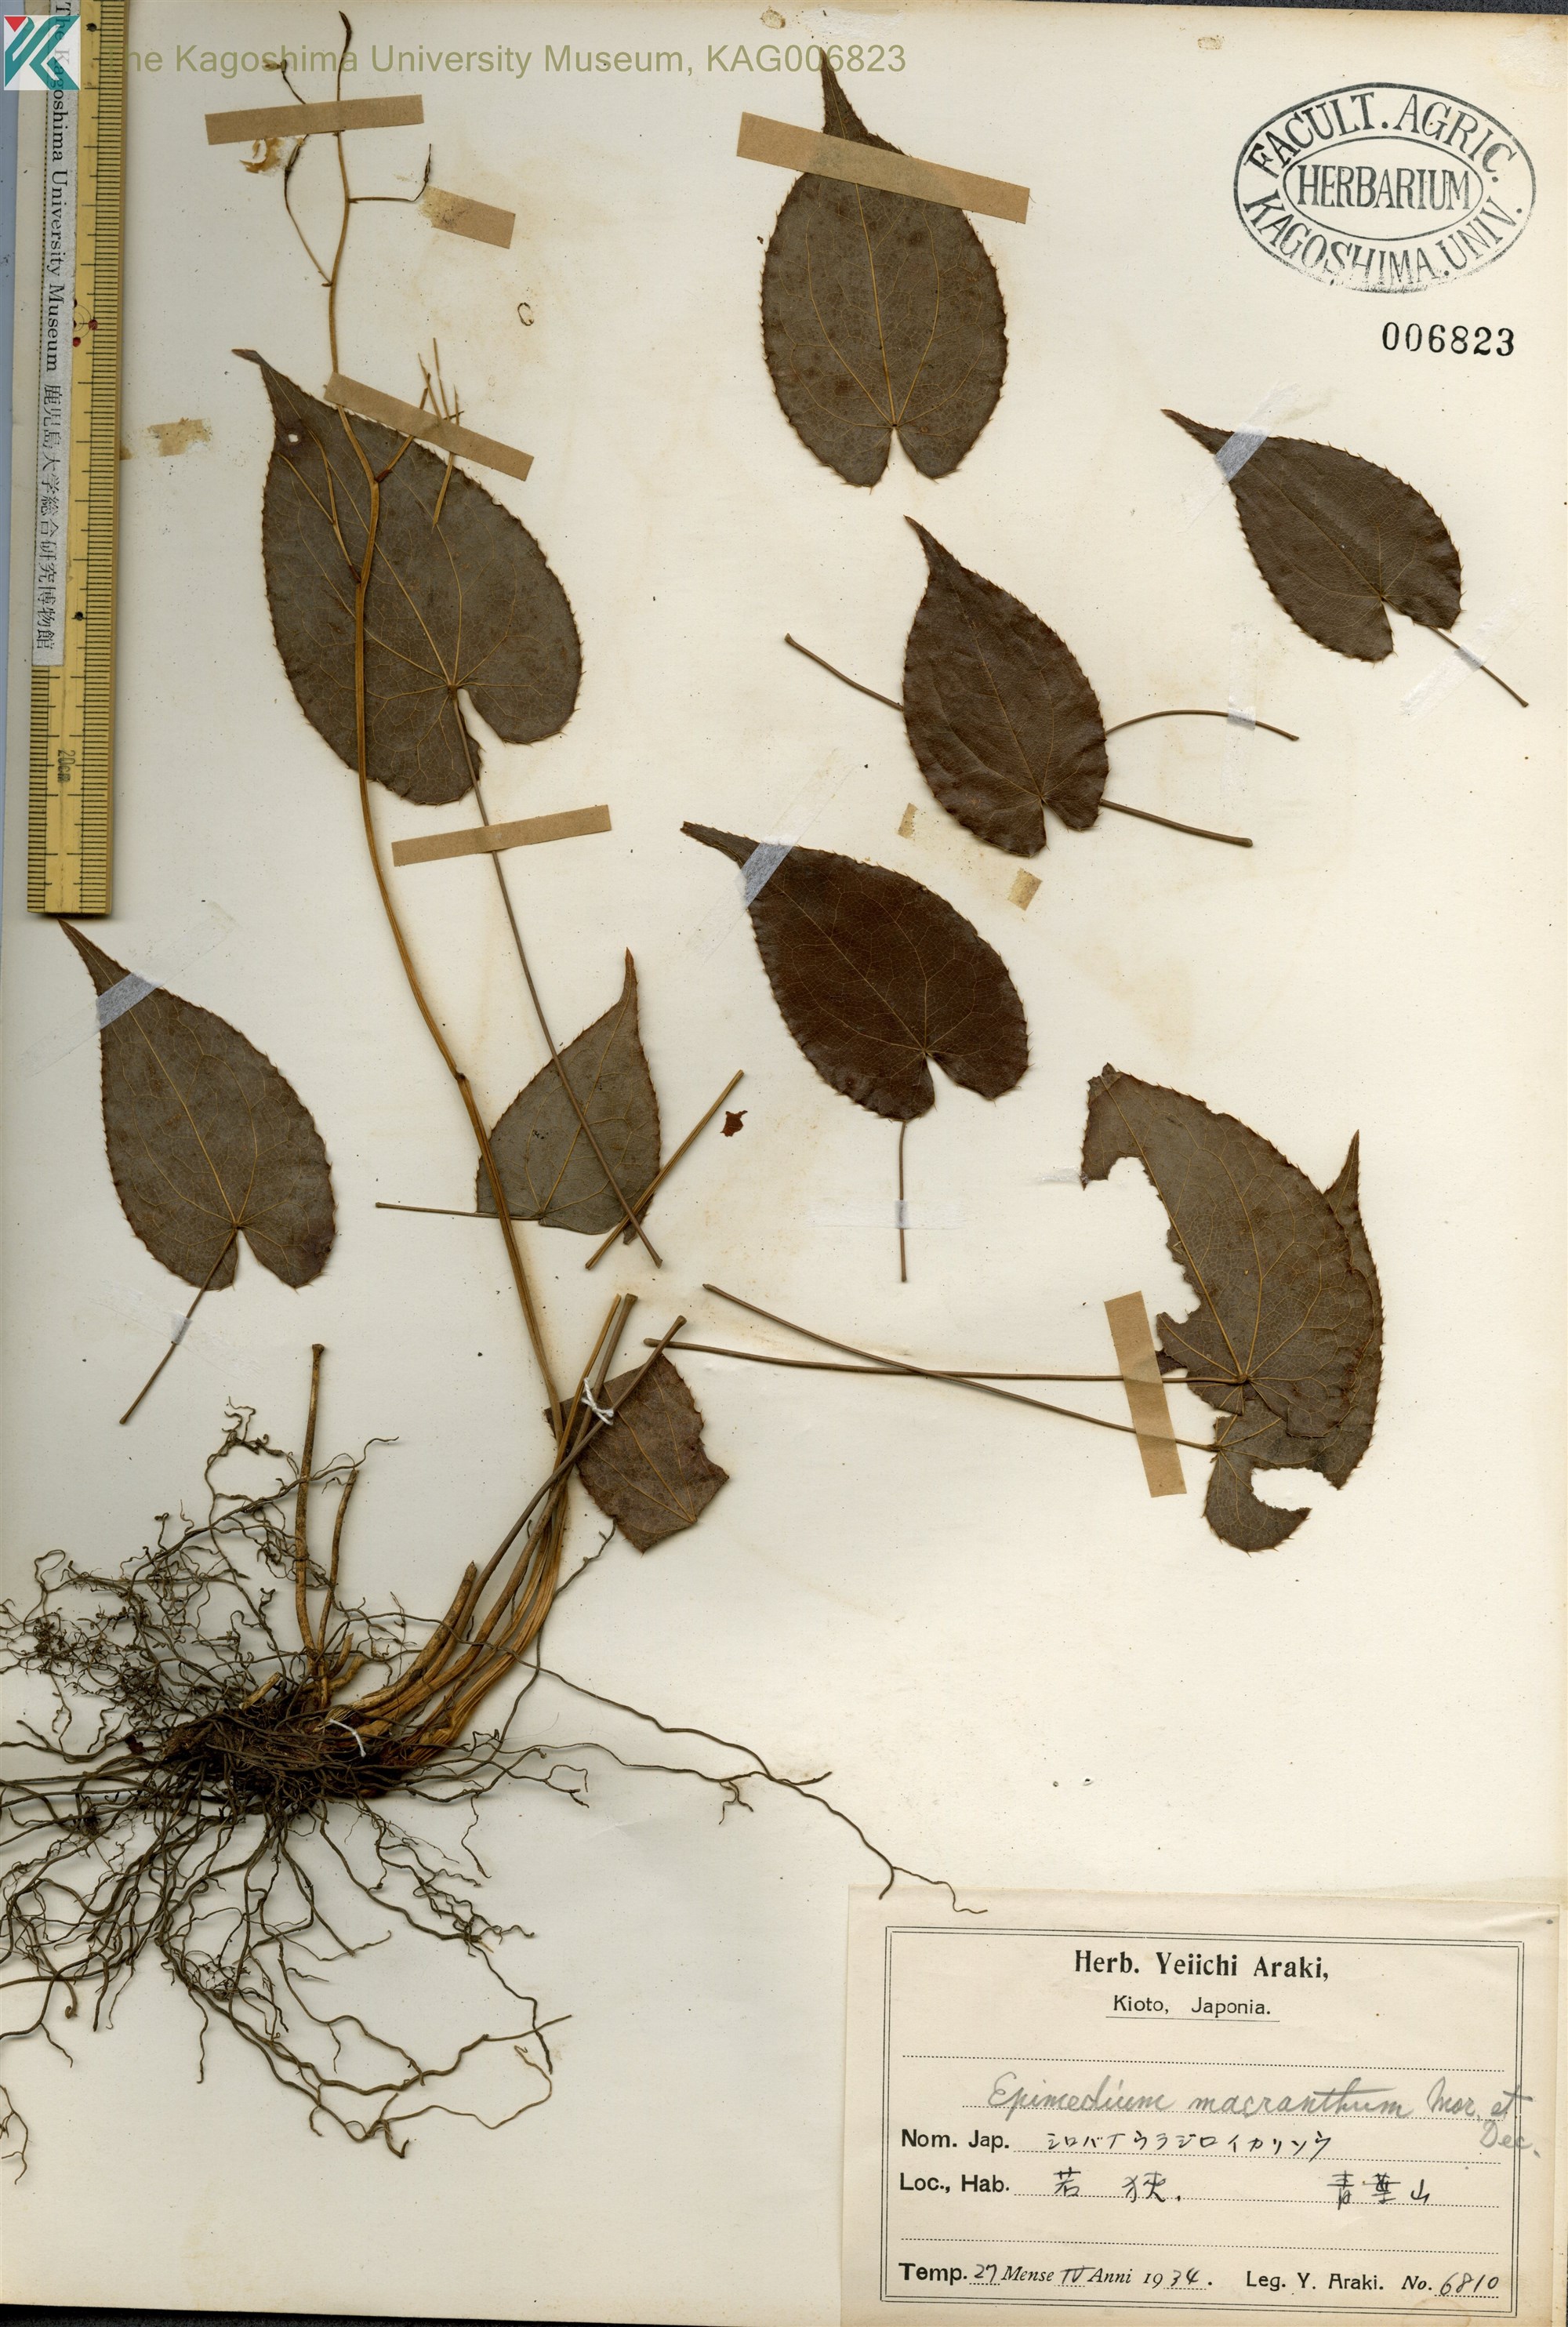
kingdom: Plantae
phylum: Tracheophyta
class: Magnoliopsida
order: Ranunculales
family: Berberidaceae
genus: Epimedium
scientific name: Epimedium grandiflorum
